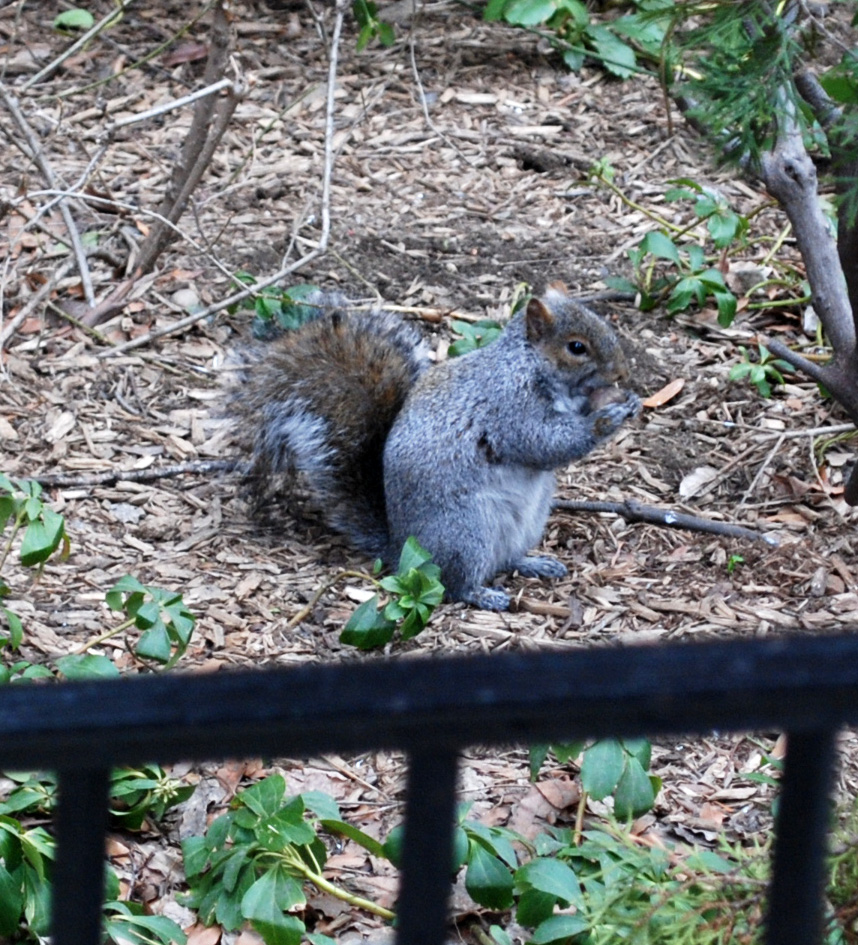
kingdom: Animalia
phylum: Chordata
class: Mammalia
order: Rodentia
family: Sciuridae
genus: Sciurus
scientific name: Sciurus carolinensis
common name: Eastern gray squirrel
